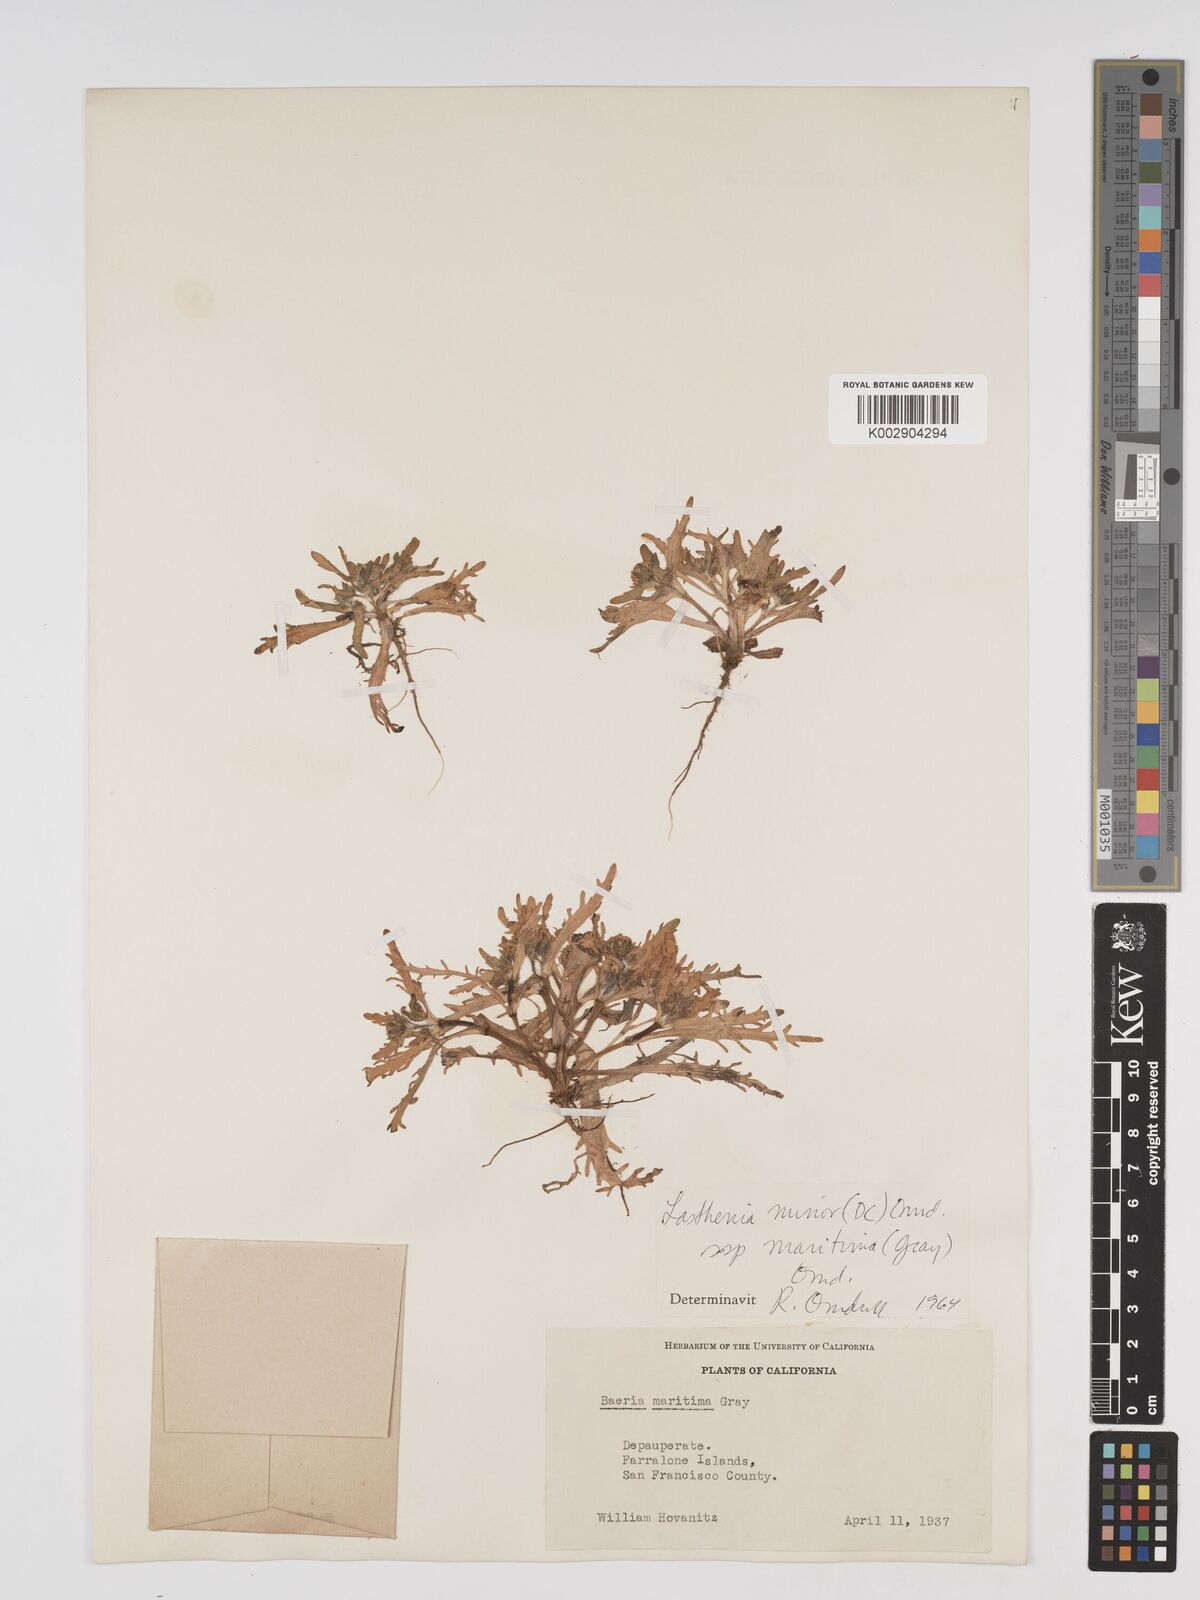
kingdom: Plantae
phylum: Tracheophyta
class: Magnoliopsida
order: Asterales
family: Asteraceae
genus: Lasthenia
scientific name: Lasthenia maritima
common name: Hairy goldfields
